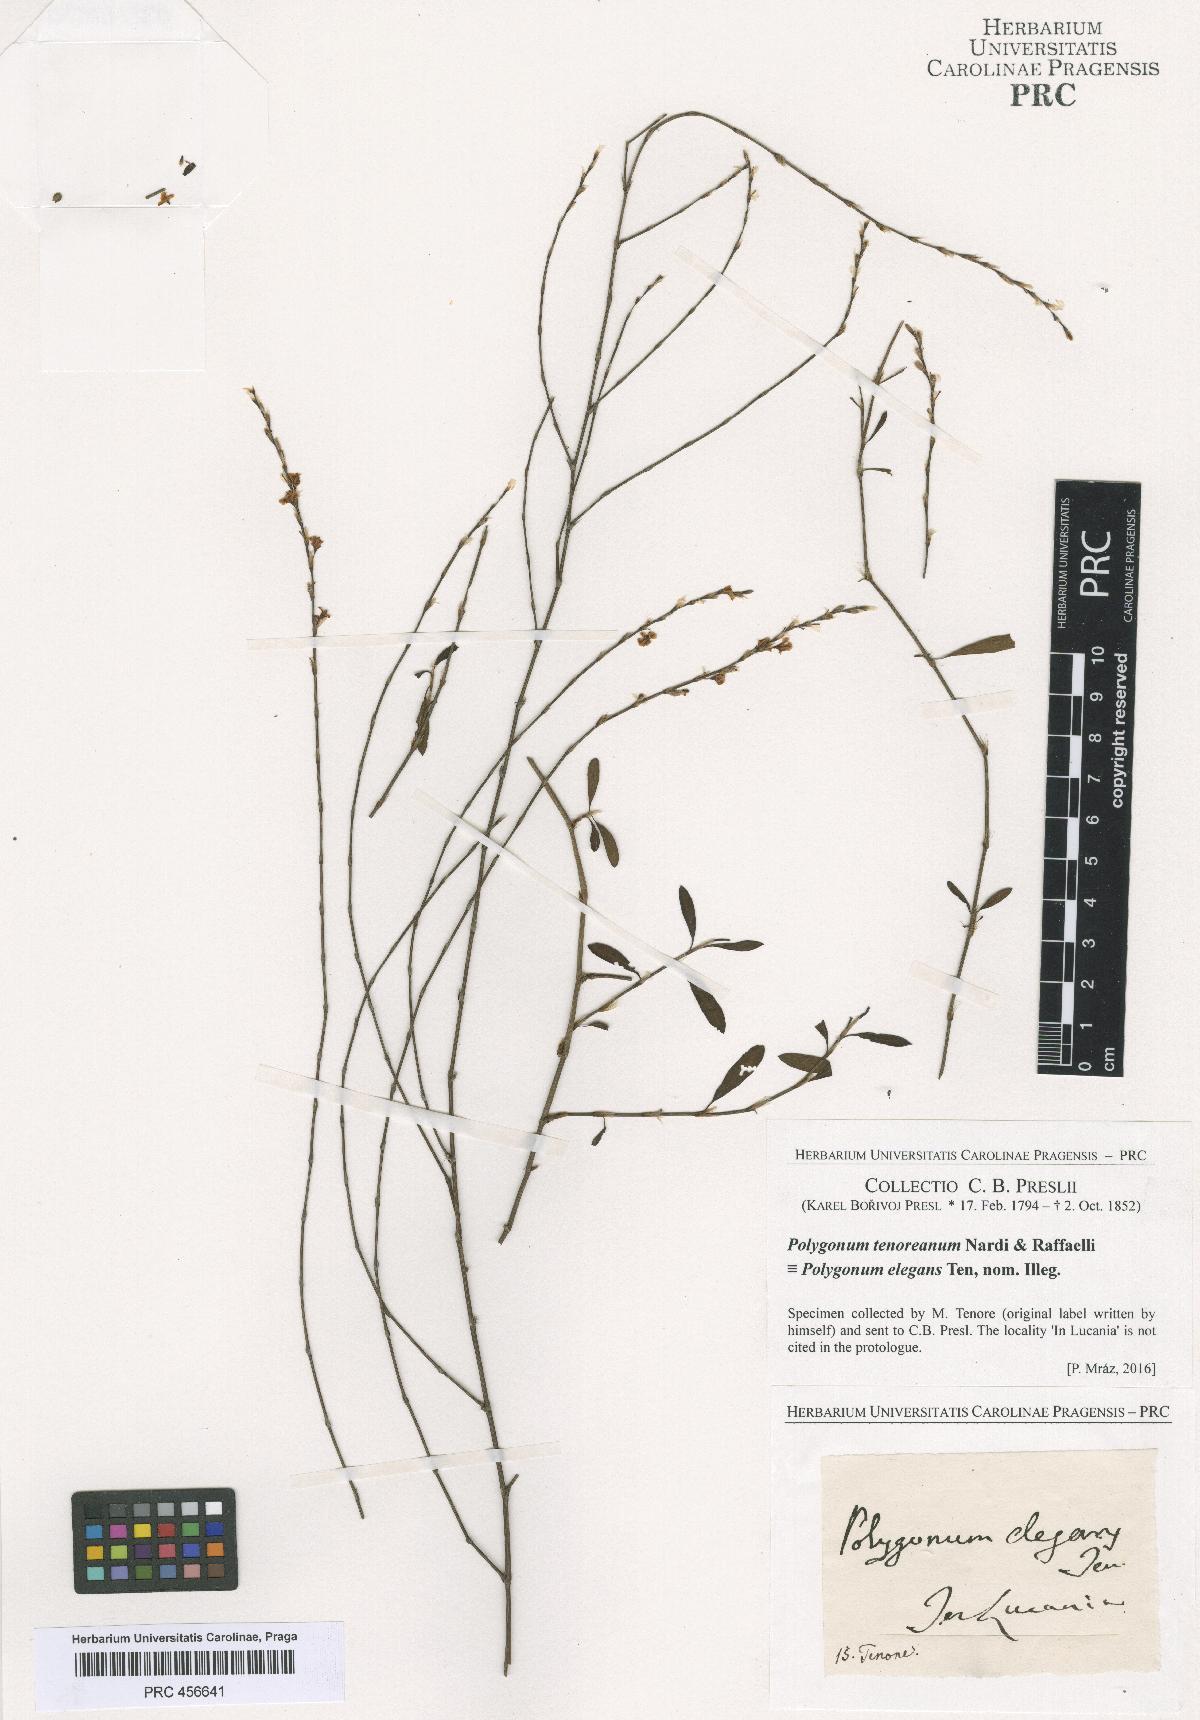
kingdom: Plantae
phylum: Tracheophyta
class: Magnoliopsida
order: Caryophyllales
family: Polygonaceae
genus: Polygonum
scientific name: Polygonum tenorei
